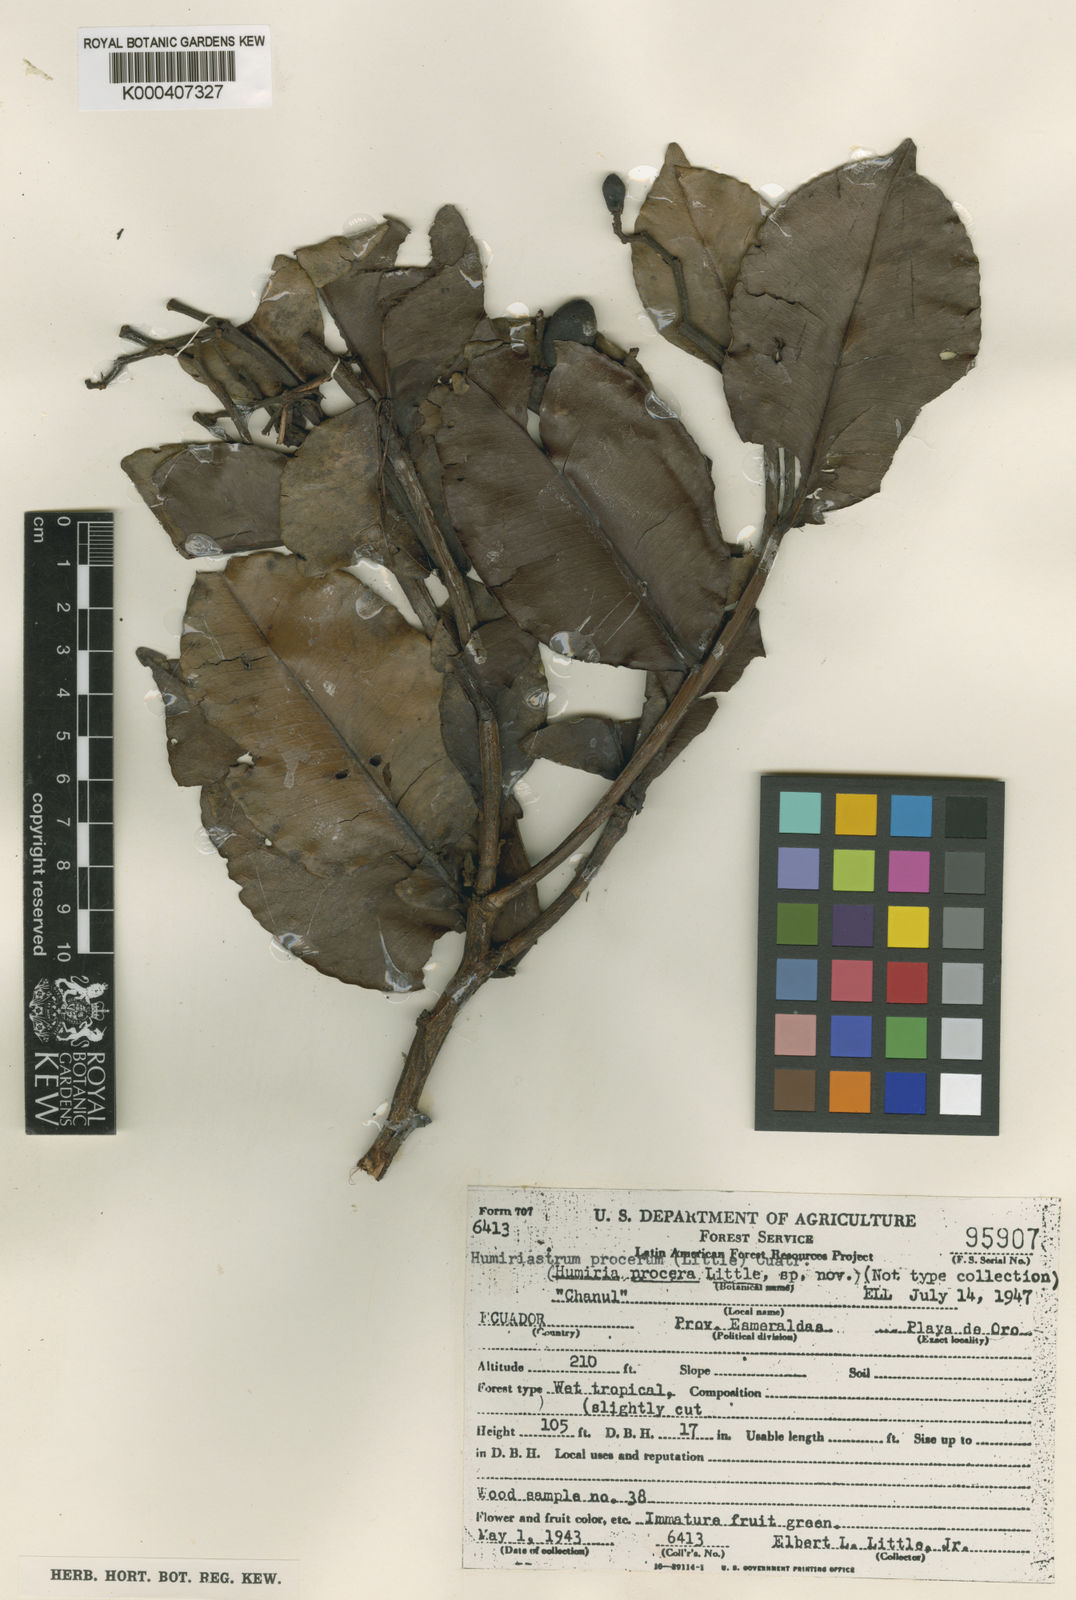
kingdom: Plantae
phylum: Tracheophyta
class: Magnoliopsida
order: Malpighiales
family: Humiriaceae
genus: Humiriastrum
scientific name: Humiriastrum procerum
